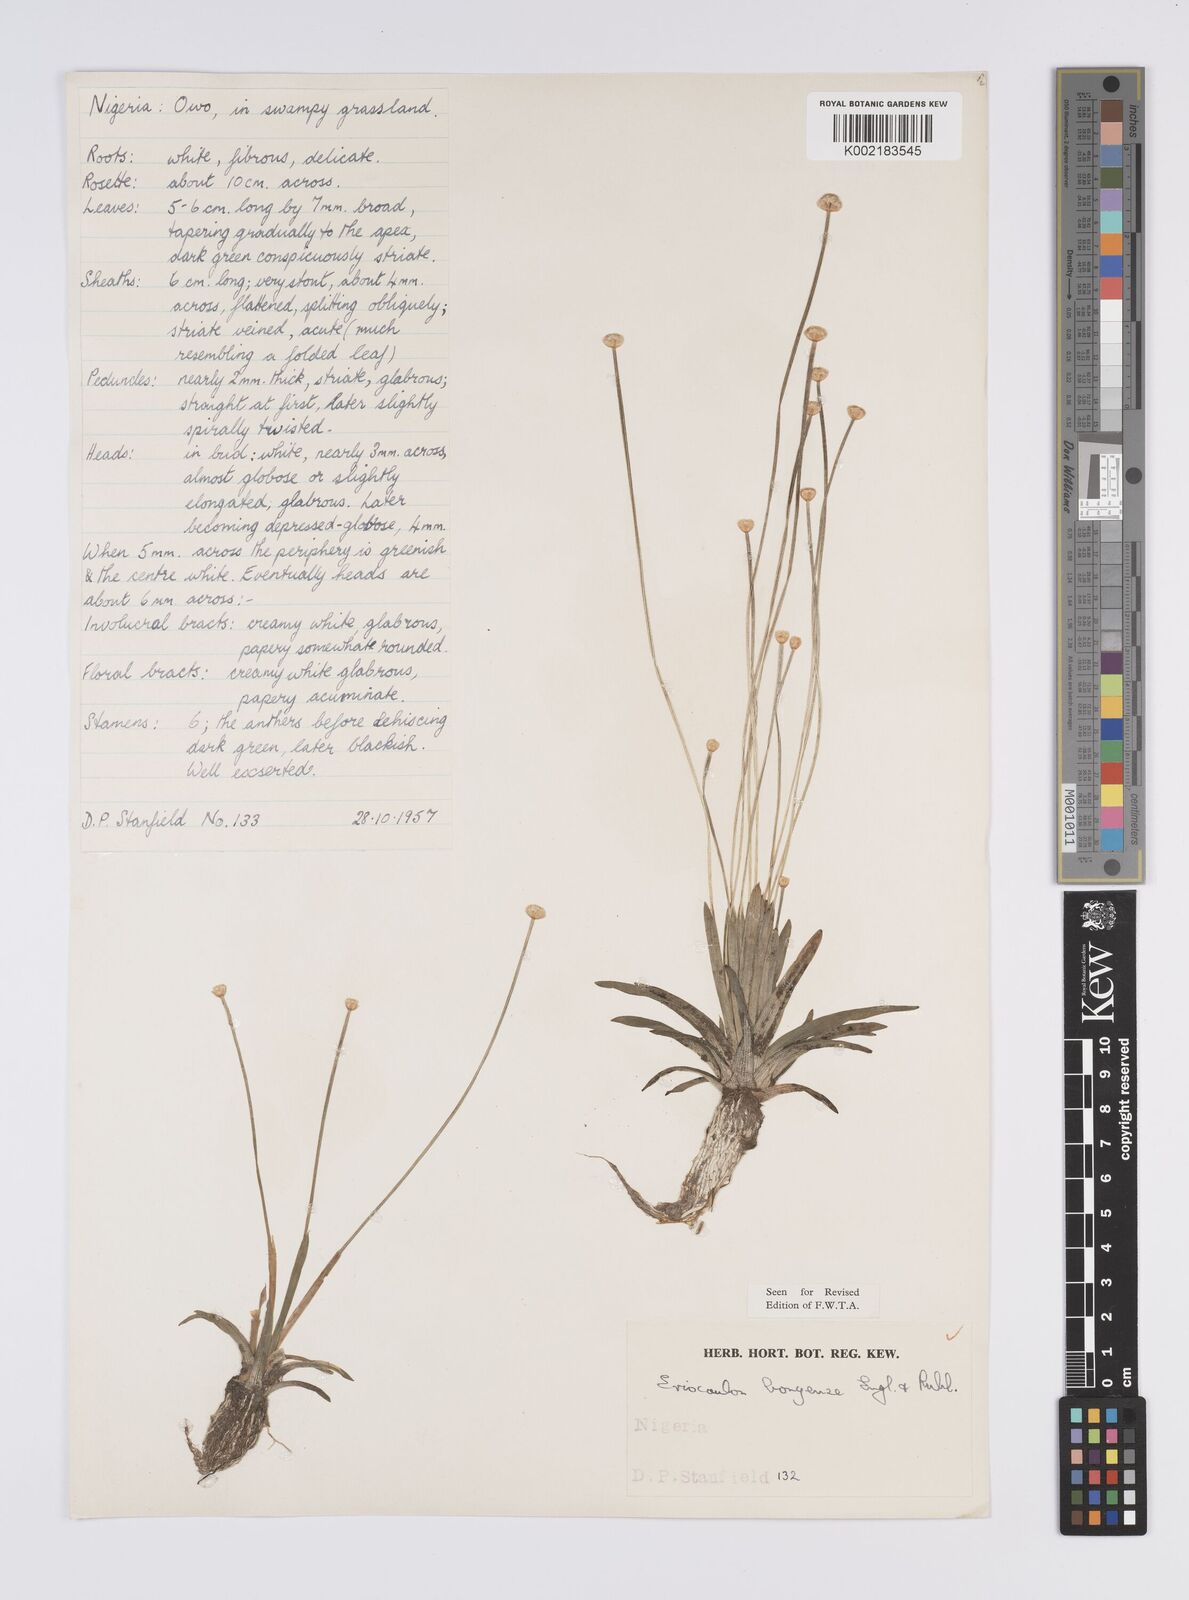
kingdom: Plantae
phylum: Tracheophyta
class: Liliopsida
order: Poales
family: Eriocaulaceae
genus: Eriocaulon
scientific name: Eriocaulon bongense
